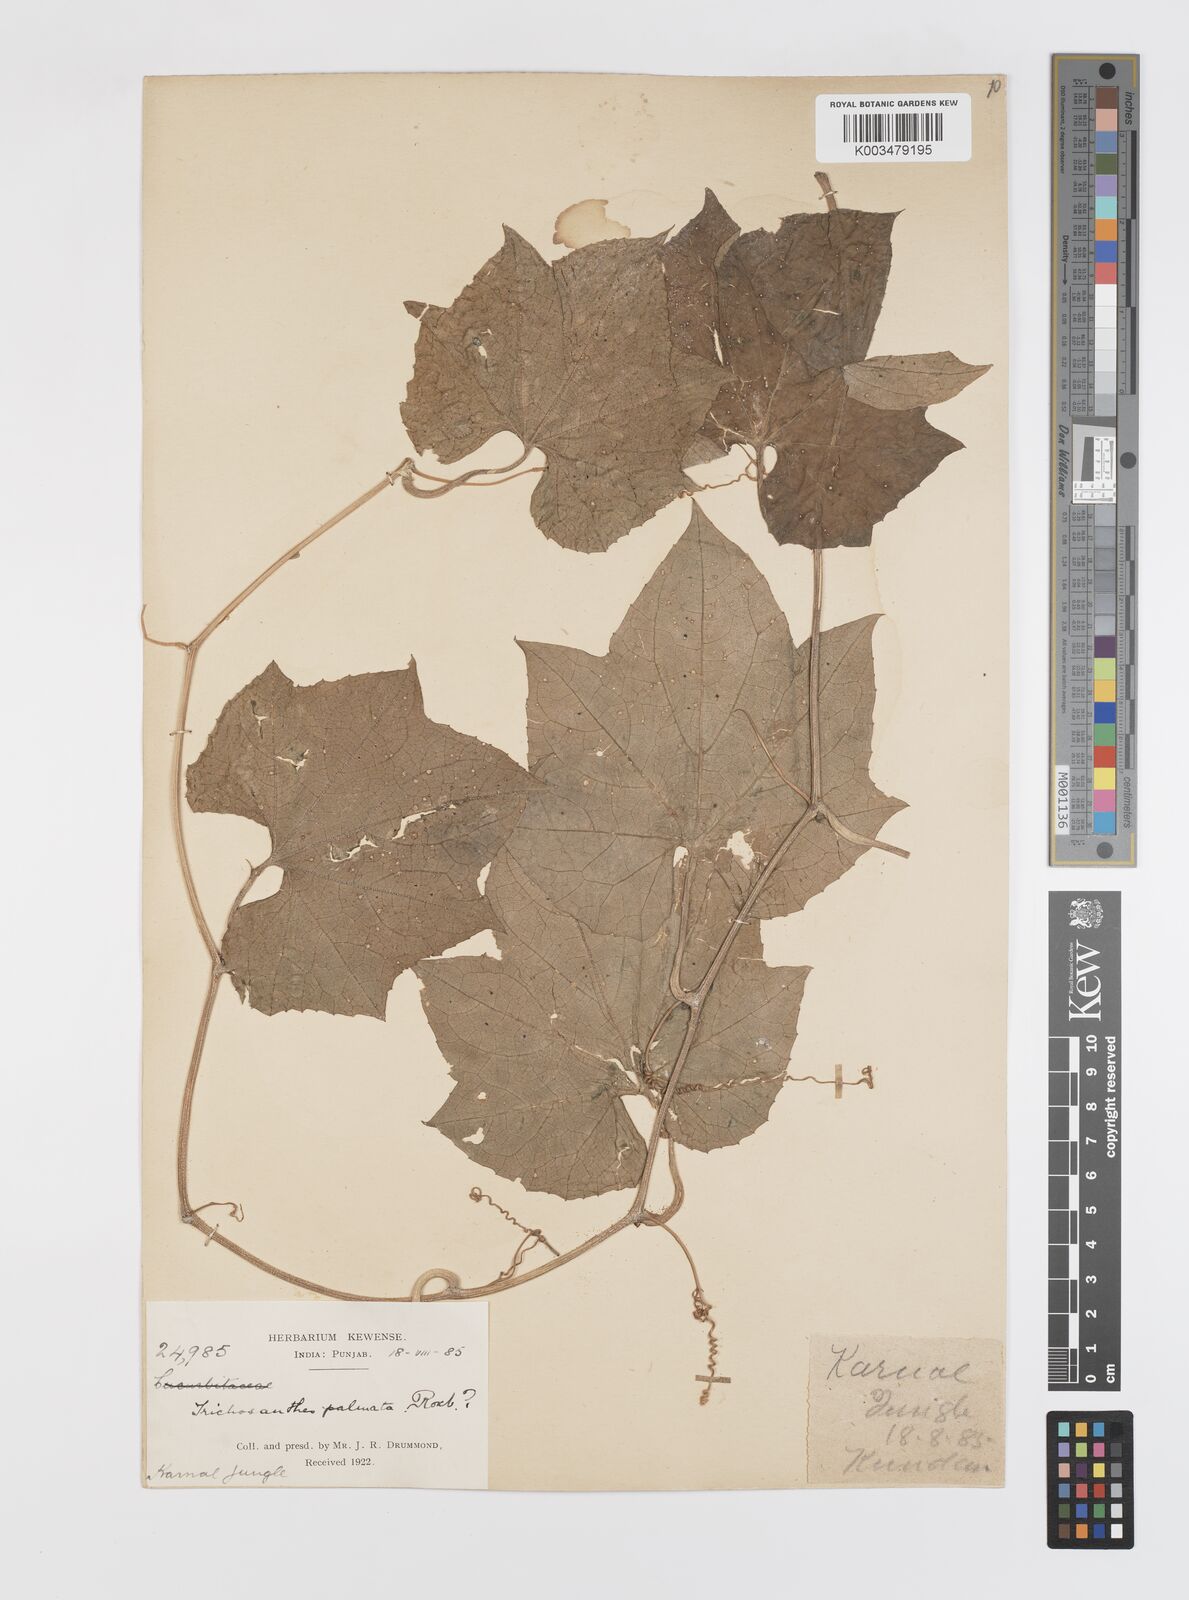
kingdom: Plantae
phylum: Tracheophyta
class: Magnoliopsida
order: Cucurbitales
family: Cucurbitaceae
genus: Trichosanthes
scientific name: Trichosanthes tricuspidata
